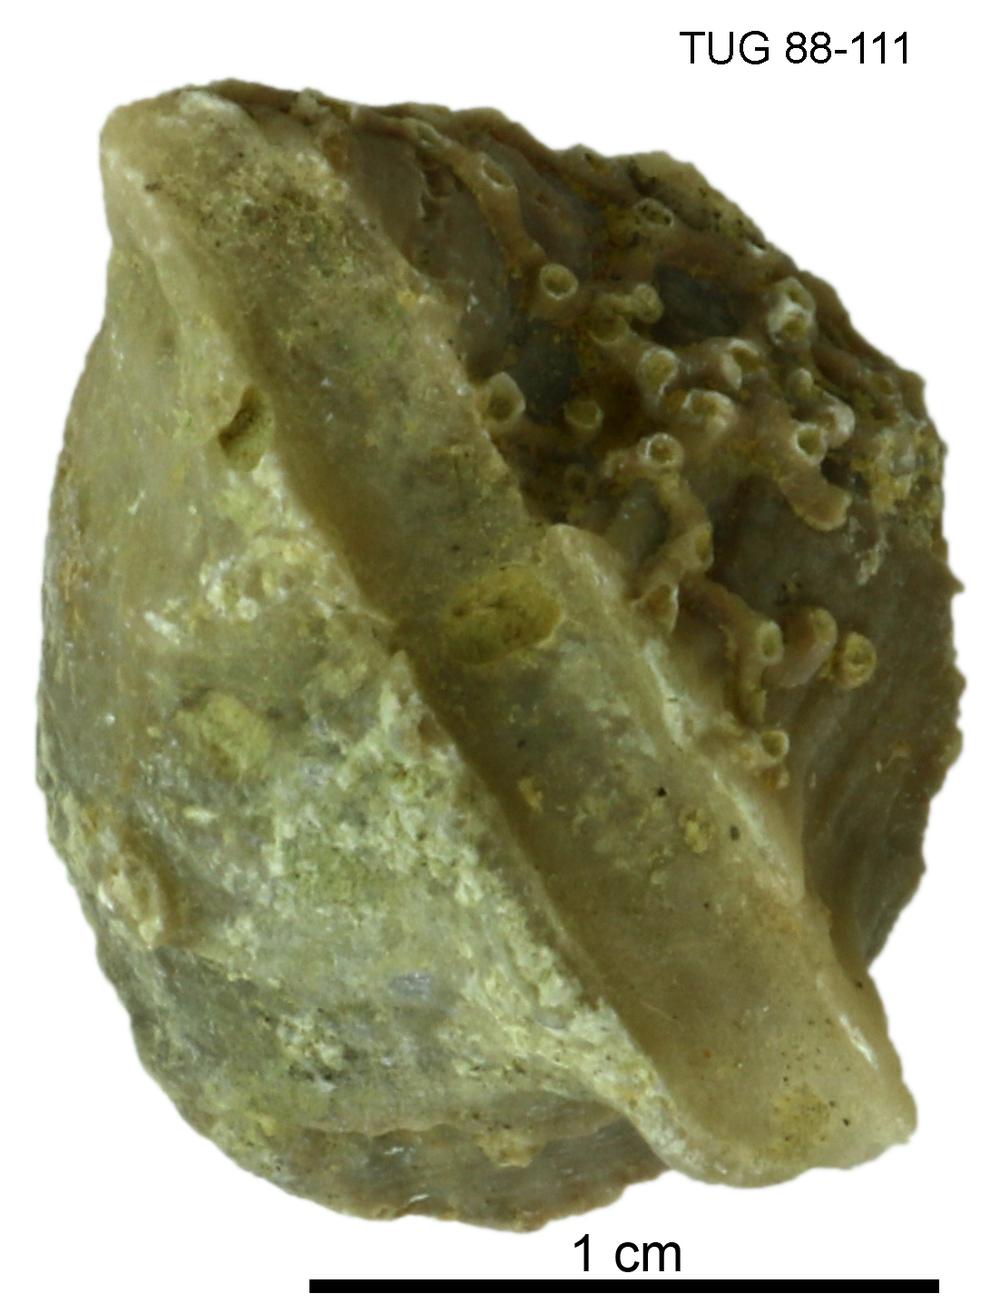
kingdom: Animalia
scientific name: Animalia
